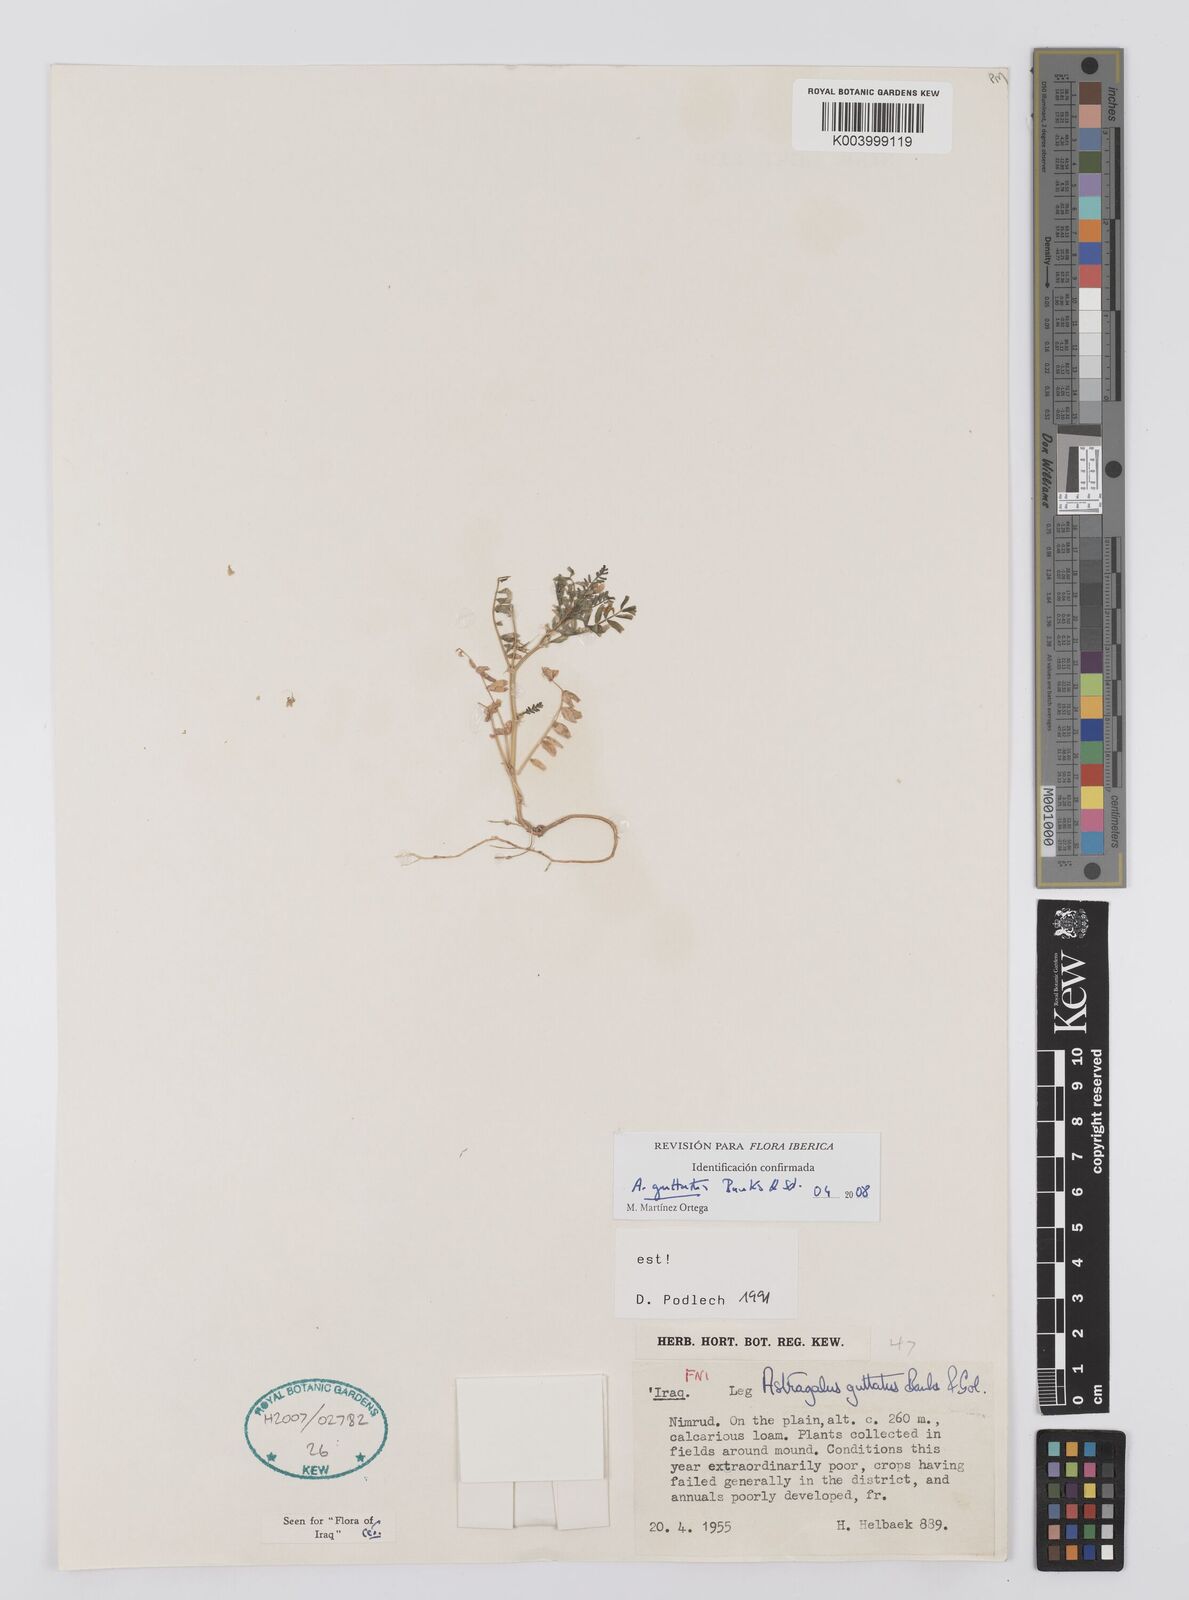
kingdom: Plantae
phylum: Tracheophyta
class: Magnoliopsida
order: Fabales
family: Fabaceae
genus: Astragalus
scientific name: Astragalus guttatus
